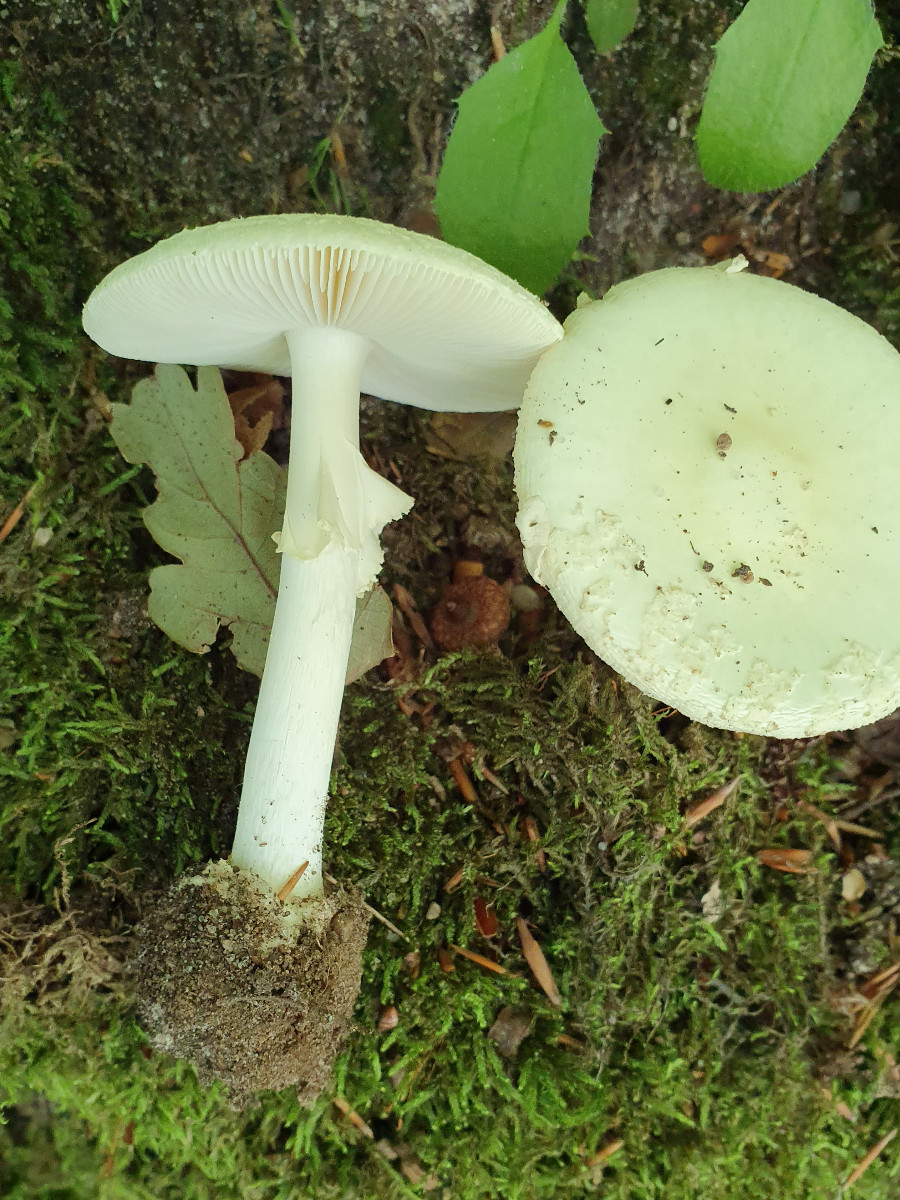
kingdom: Fungi
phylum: Basidiomycota
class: Agaricomycetes
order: Agaricales
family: Amanitaceae
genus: Amanita
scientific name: Amanita citrina
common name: kugleknoldet fluesvamp
